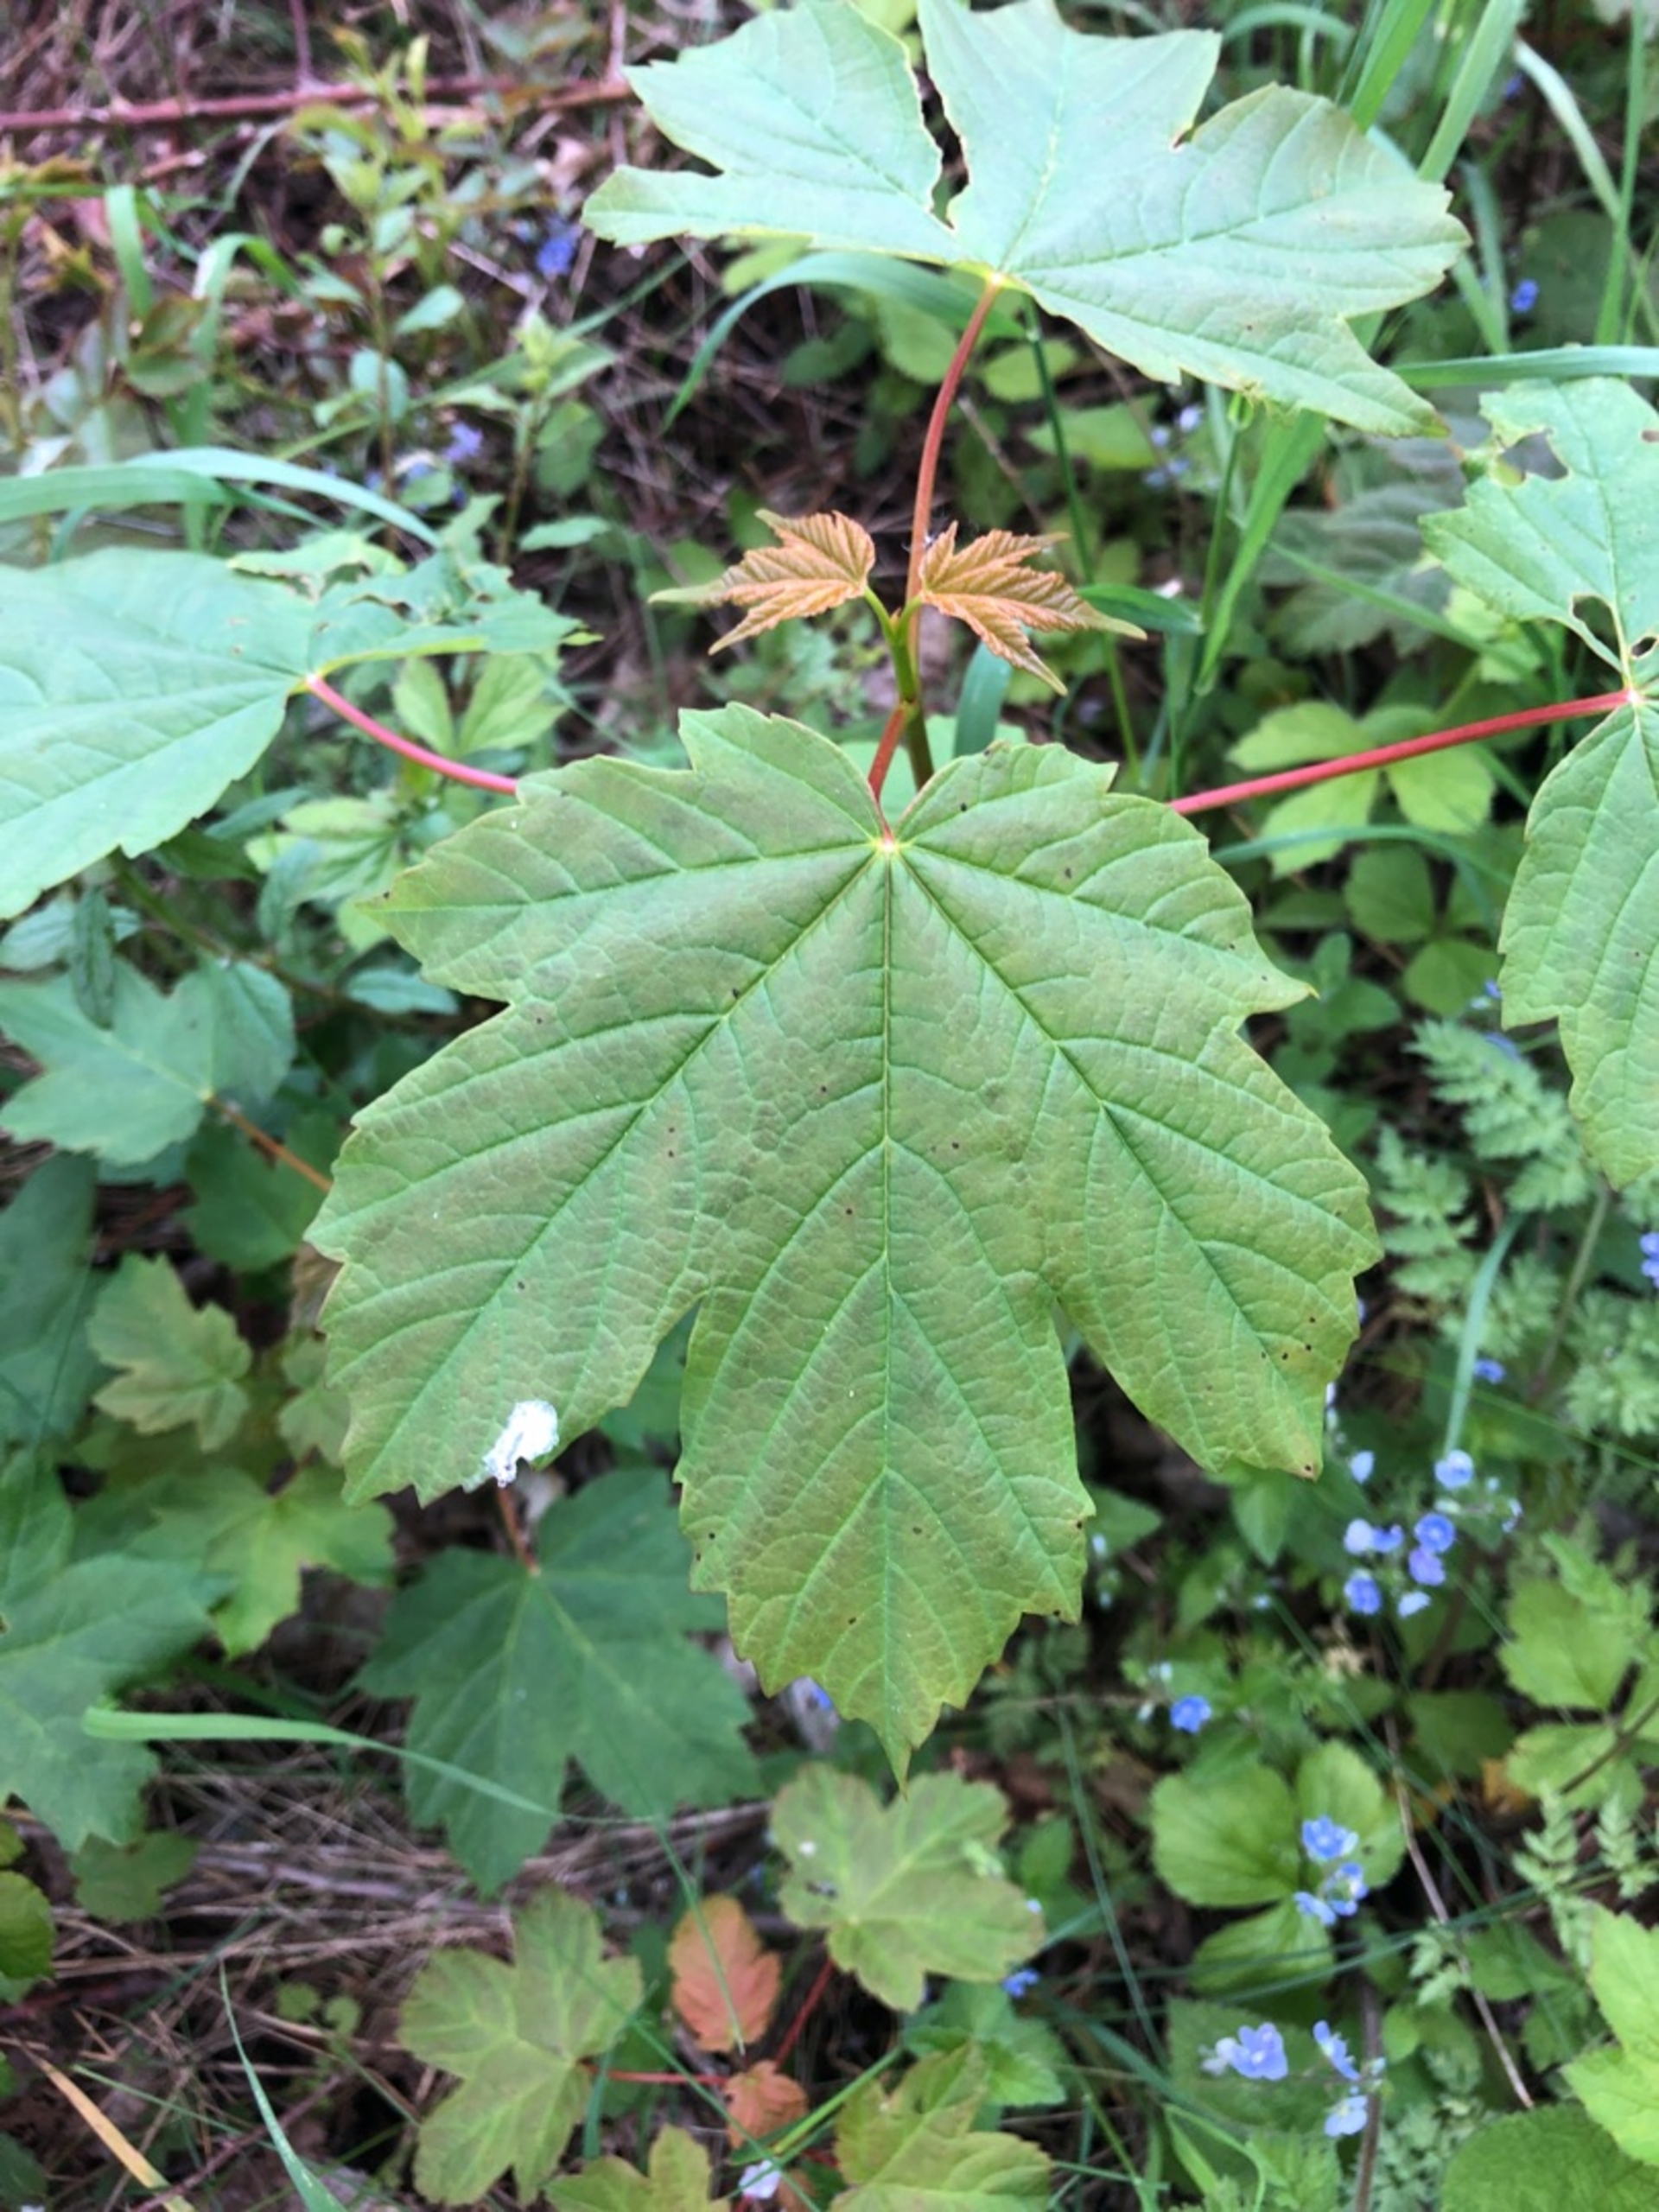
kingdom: Plantae
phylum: Tracheophyta
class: Magnoliopsida
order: Sapindales
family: Sapindaceae
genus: Acer
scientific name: Acer pseudoplatanus
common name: Ahorn
